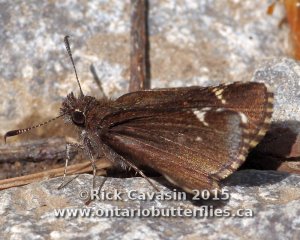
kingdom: Animalia
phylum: Arthropoda
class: Insecta
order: Lepidoptera
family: Hesperiidae
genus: Mastor
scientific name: Mastor vialis
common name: Common Roadside-Skipper
